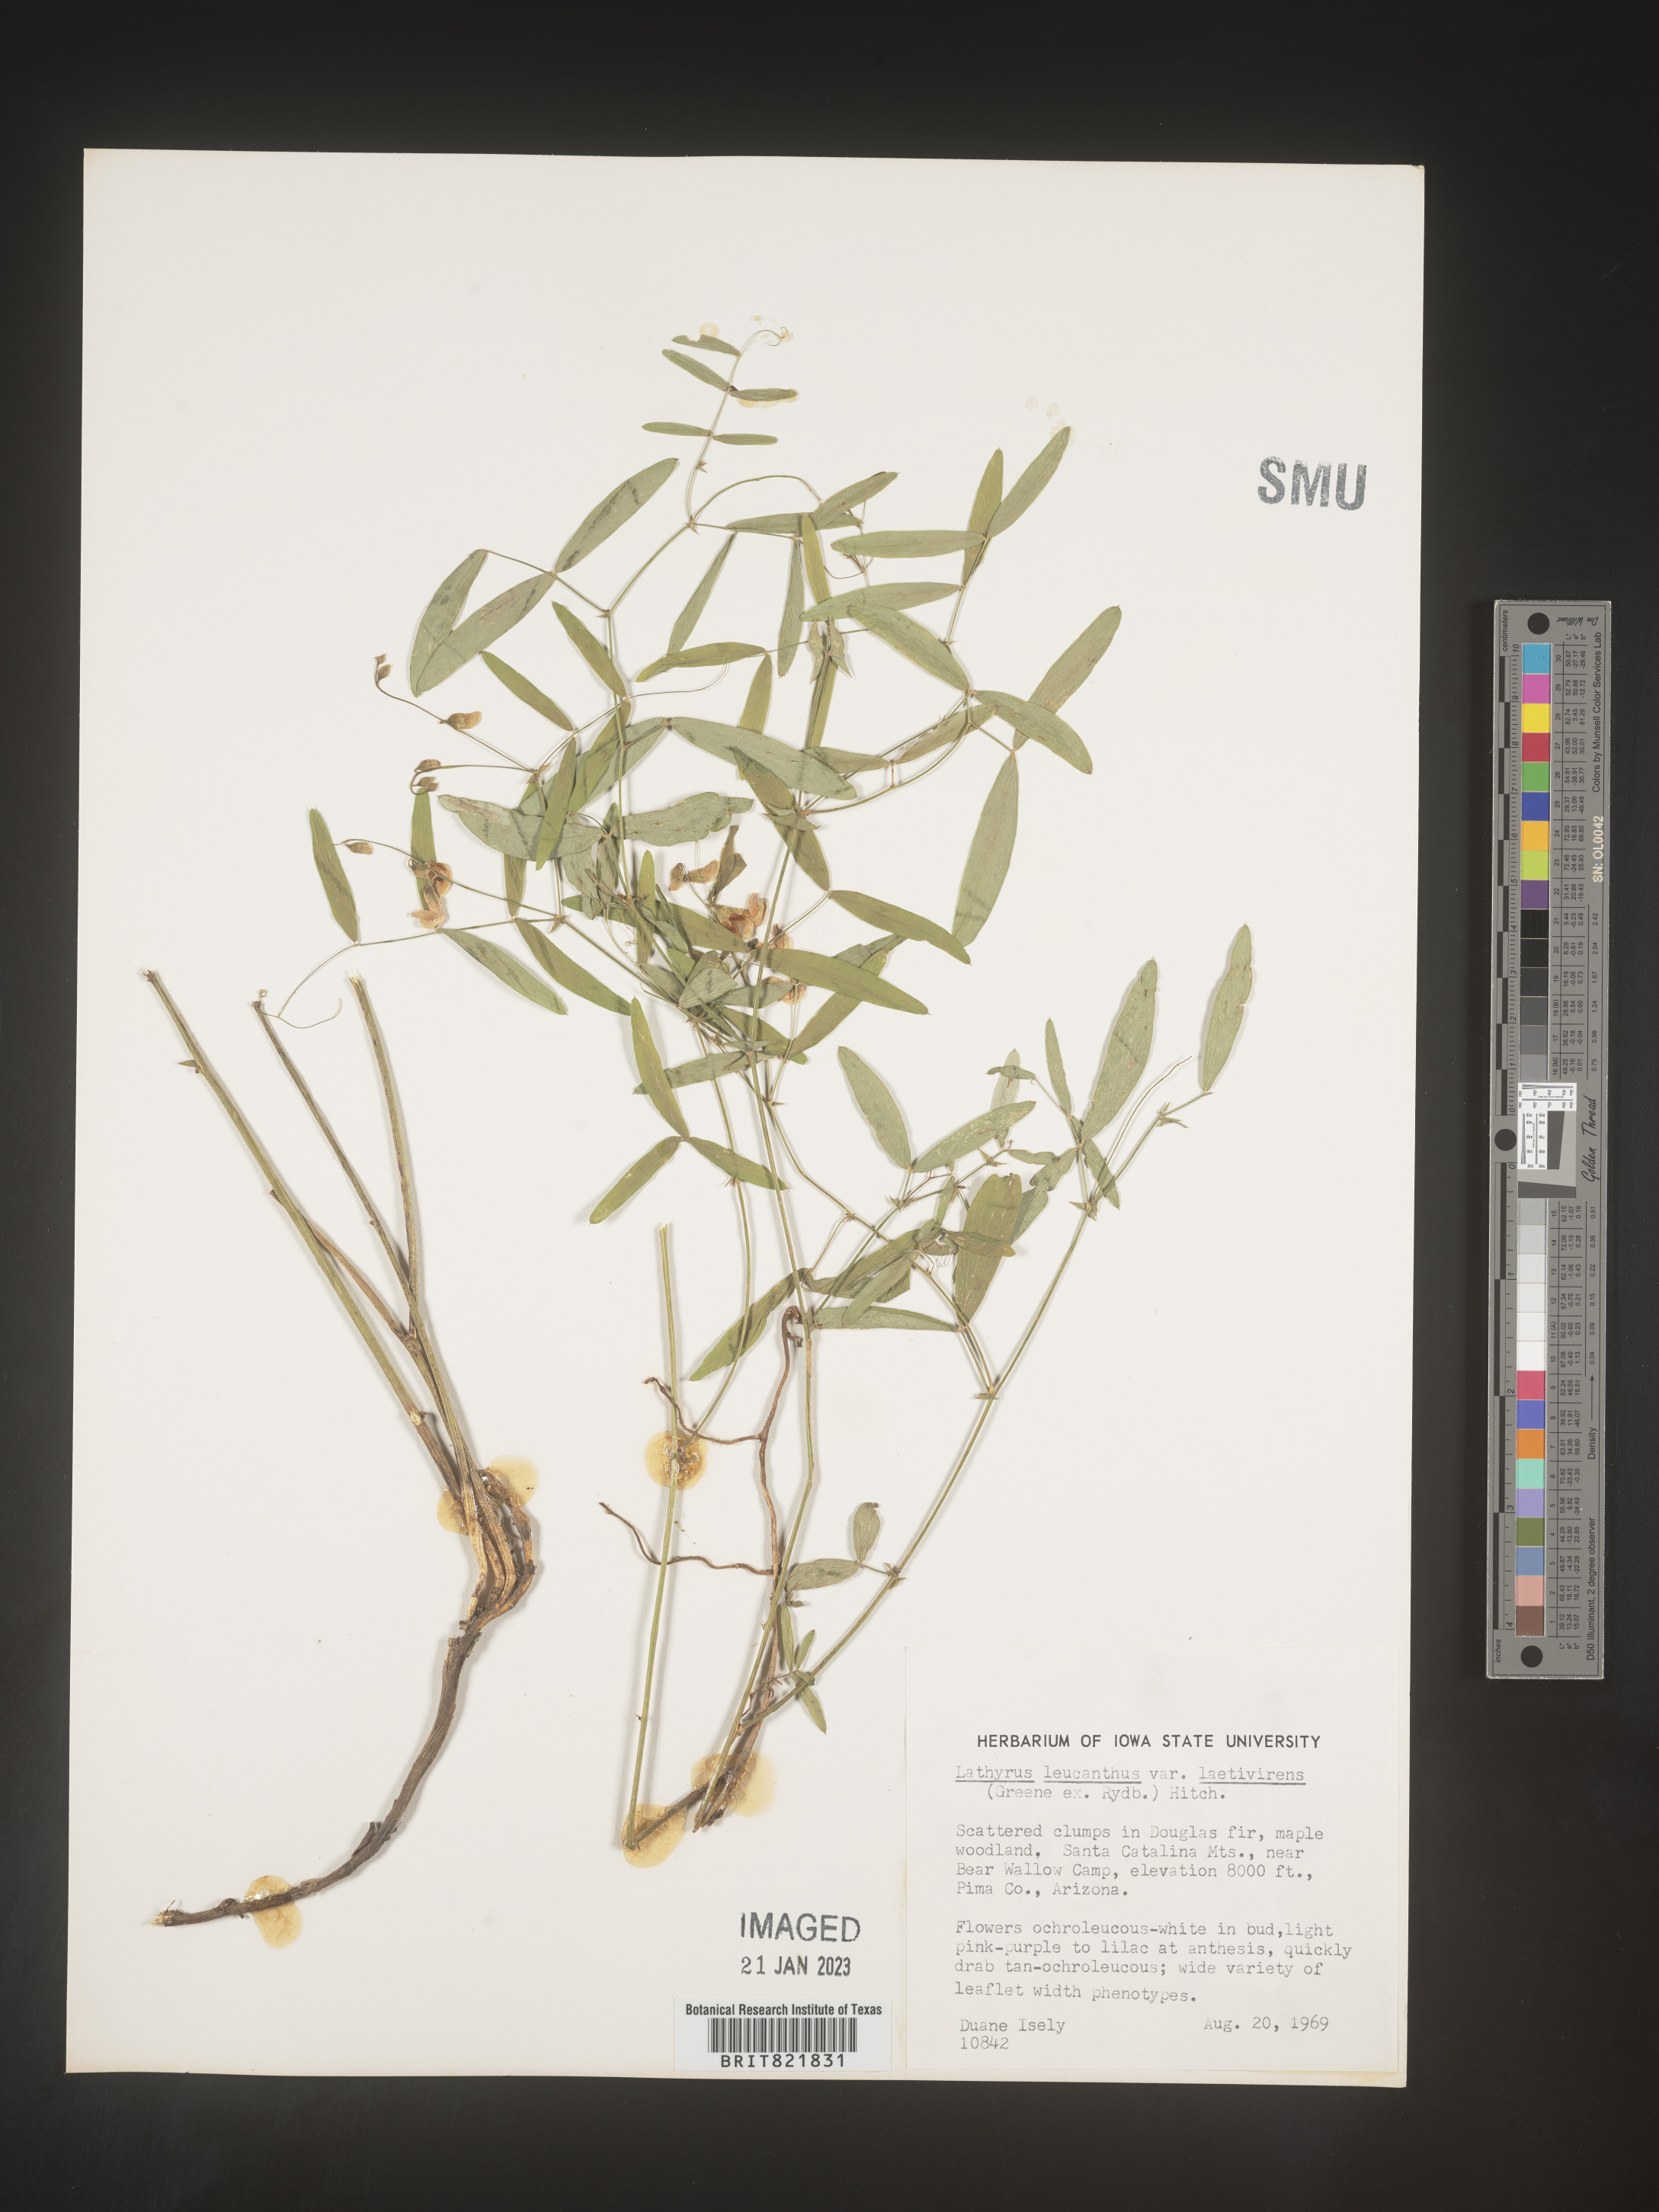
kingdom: Plantae
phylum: Tracheophyta
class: Magnoliopsida
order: Fabales
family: Fabaceae
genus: Lathyrus
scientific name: Lathyrus
